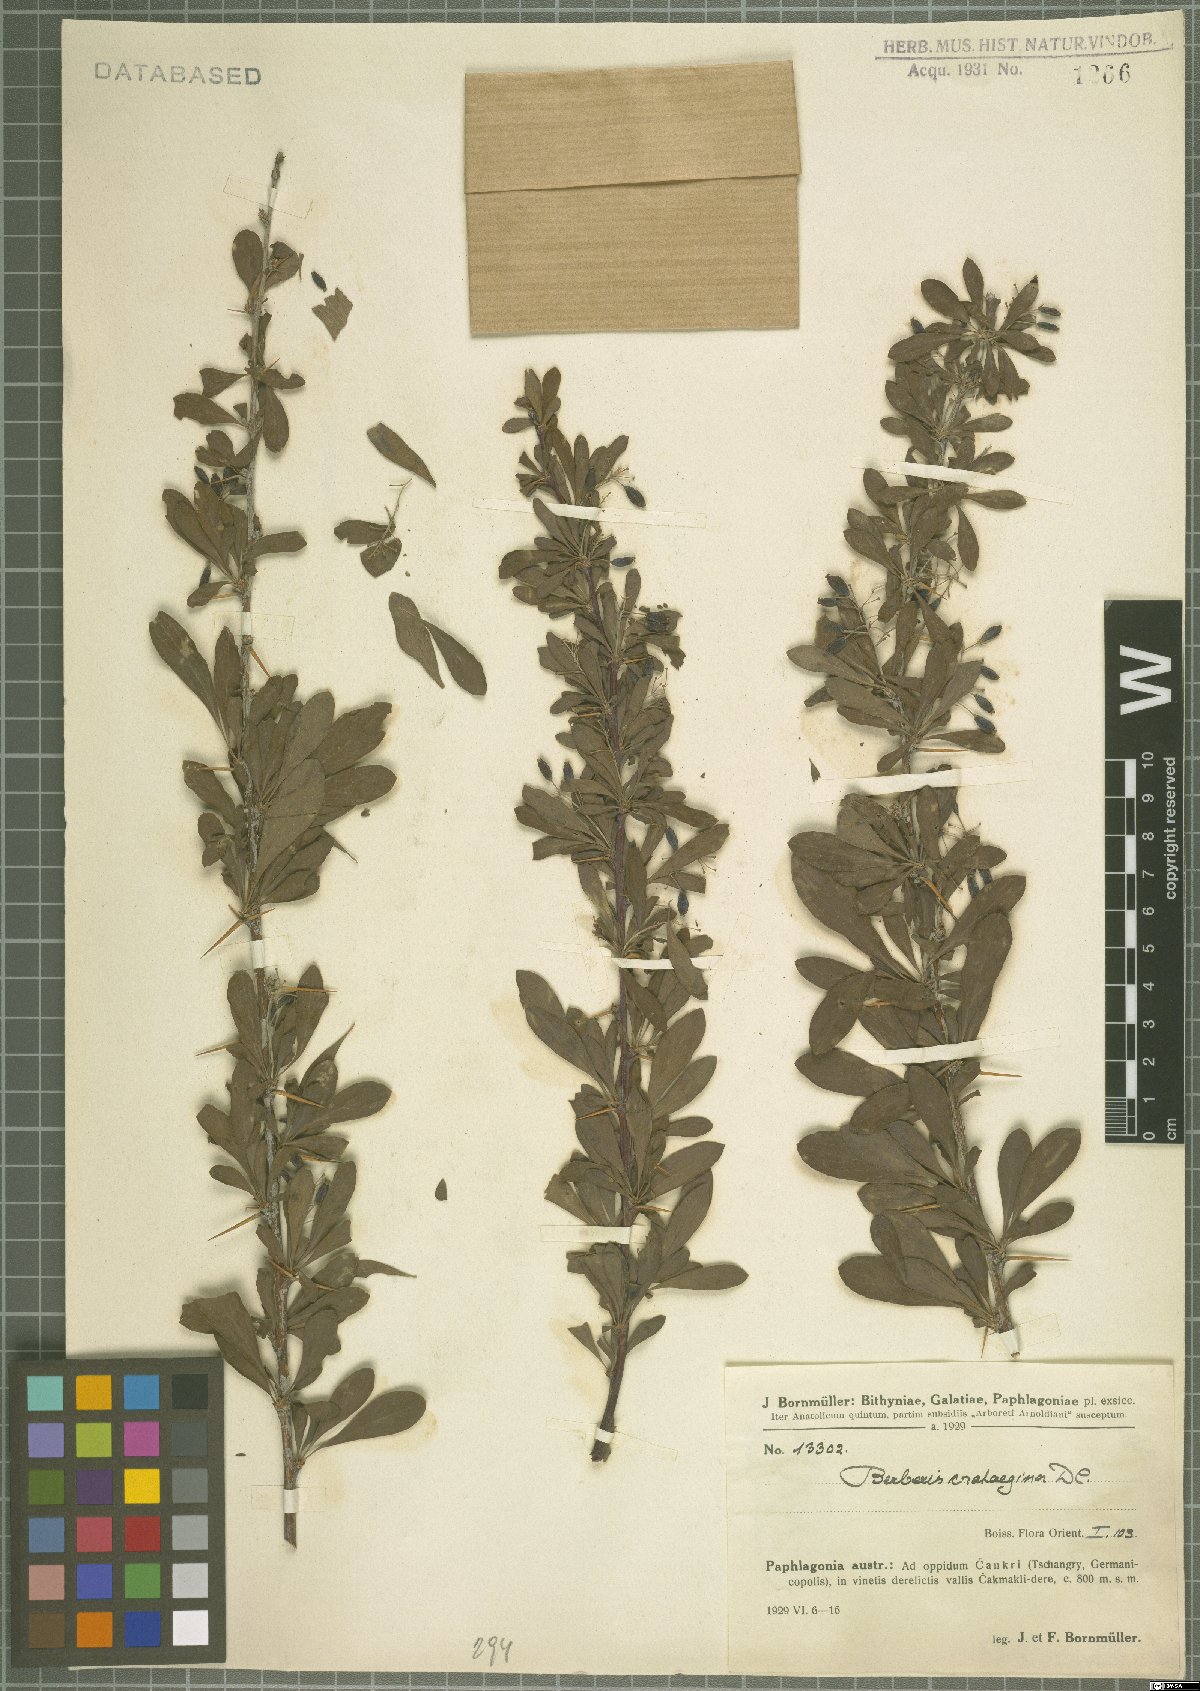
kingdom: Plantae
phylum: Tracheophyta
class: Magnoliopsida
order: Ranunculales
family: Berberidaceae
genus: Berberis
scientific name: Berberis crataegina
